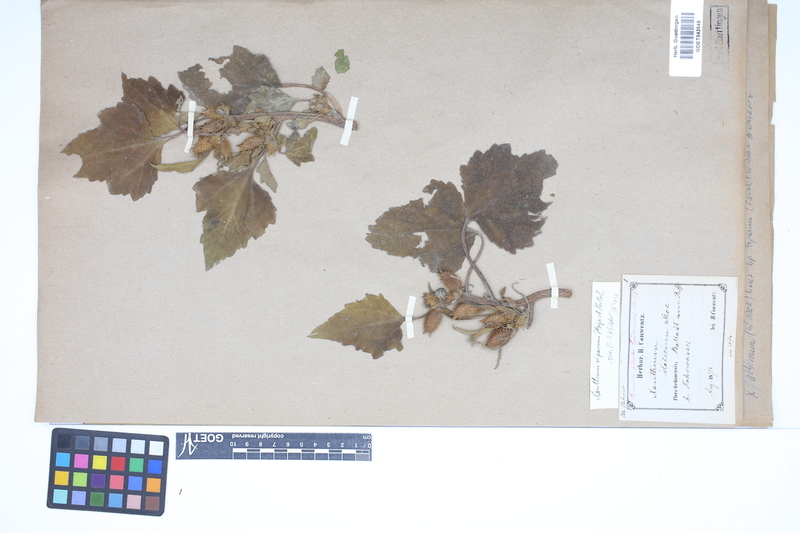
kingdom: Plantae
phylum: Tracheophyta
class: Magnoliopsida
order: Asterales
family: Asteraceae
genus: Xanthium
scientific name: Xanthium orientale
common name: Californian burr
